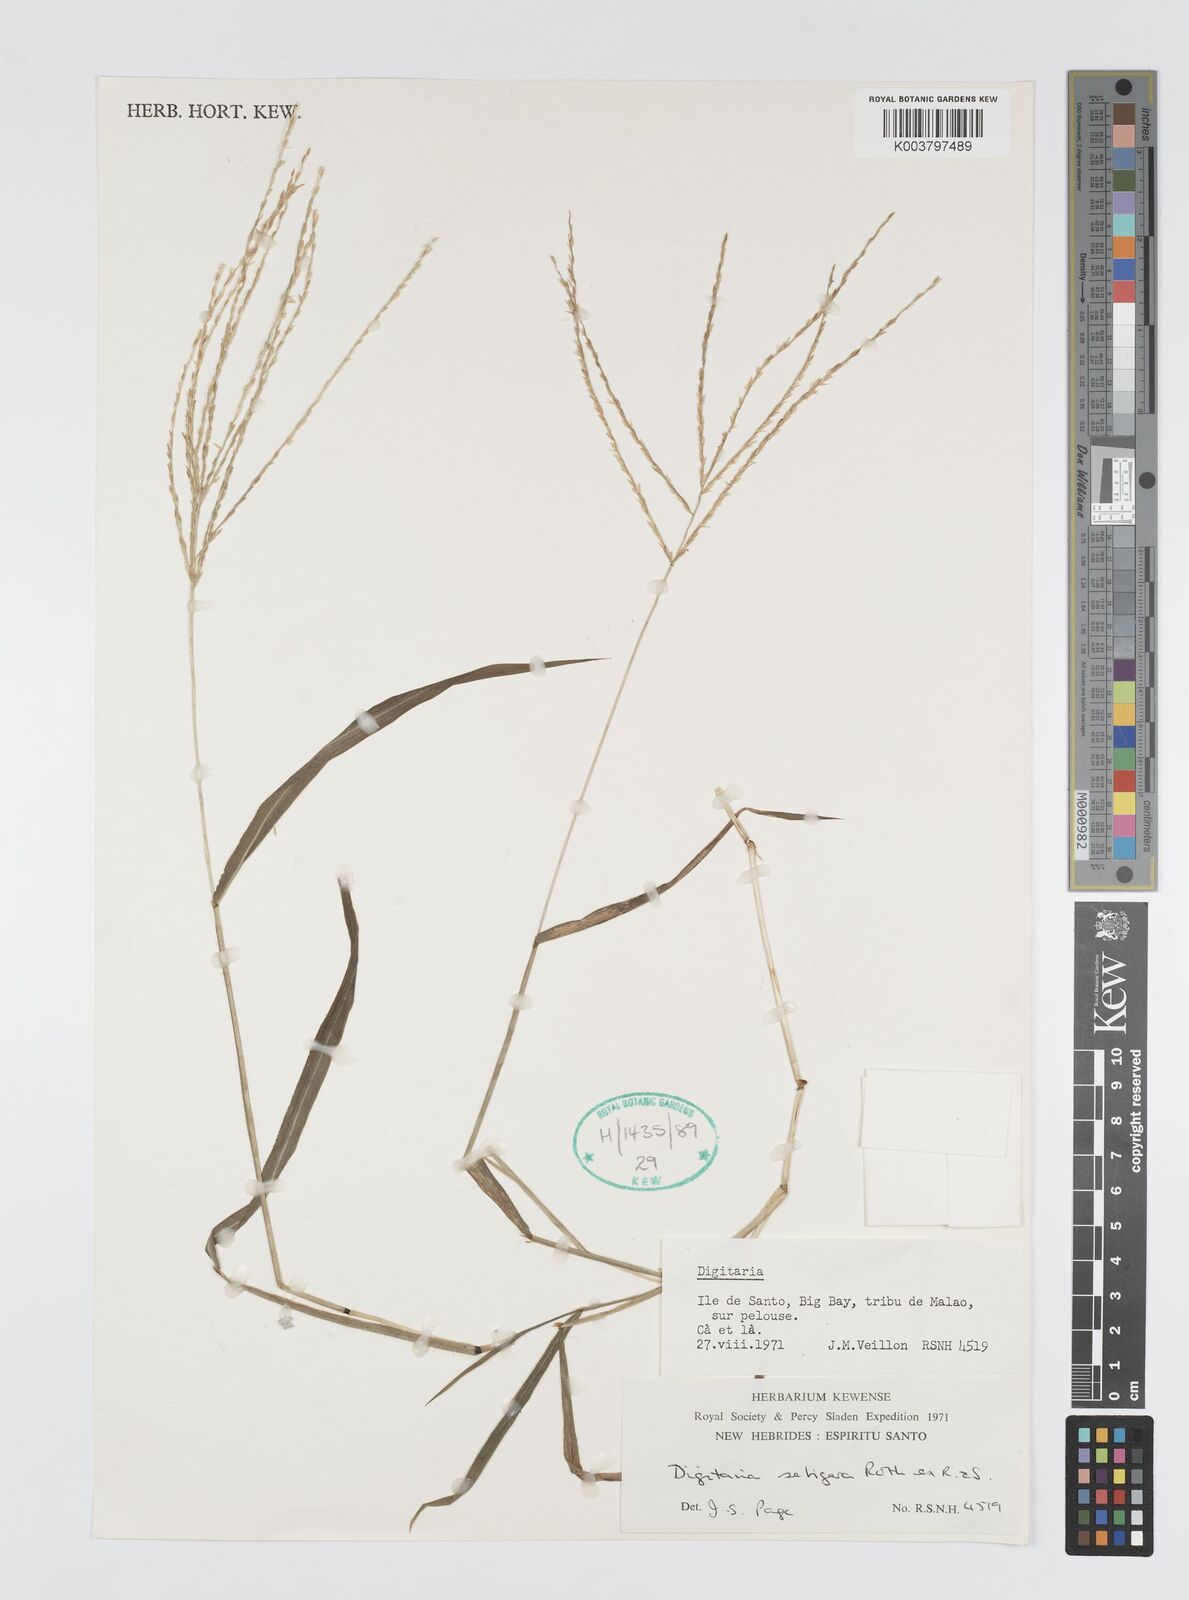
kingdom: Plantae
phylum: Tracheophyta
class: Liliopsida
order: Poales
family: Poaceae
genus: Digitaria
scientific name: Digitaria setigera
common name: East indian crabgrass
